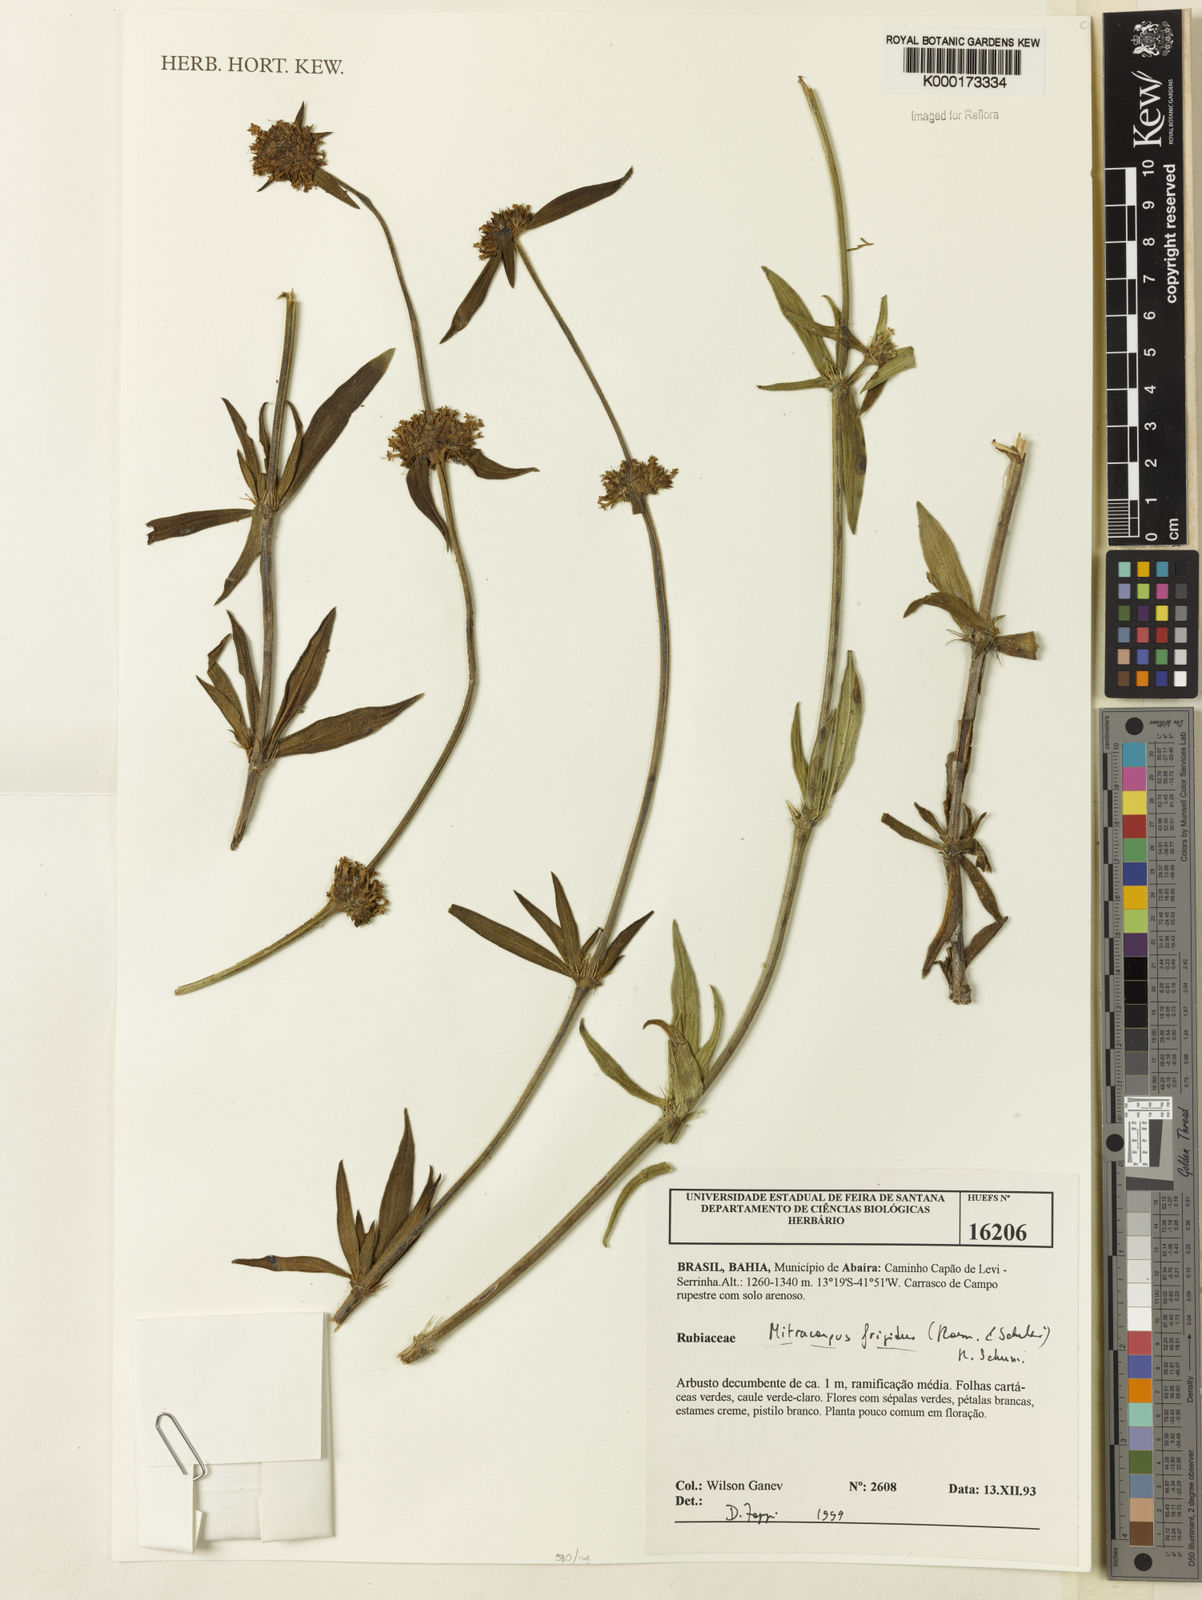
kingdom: Plantae
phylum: Tracheophyta
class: Magnoliopsida
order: Gentianales
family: Rubiaceae
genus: Mitracarpus
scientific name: Mitracarpus frigidus
